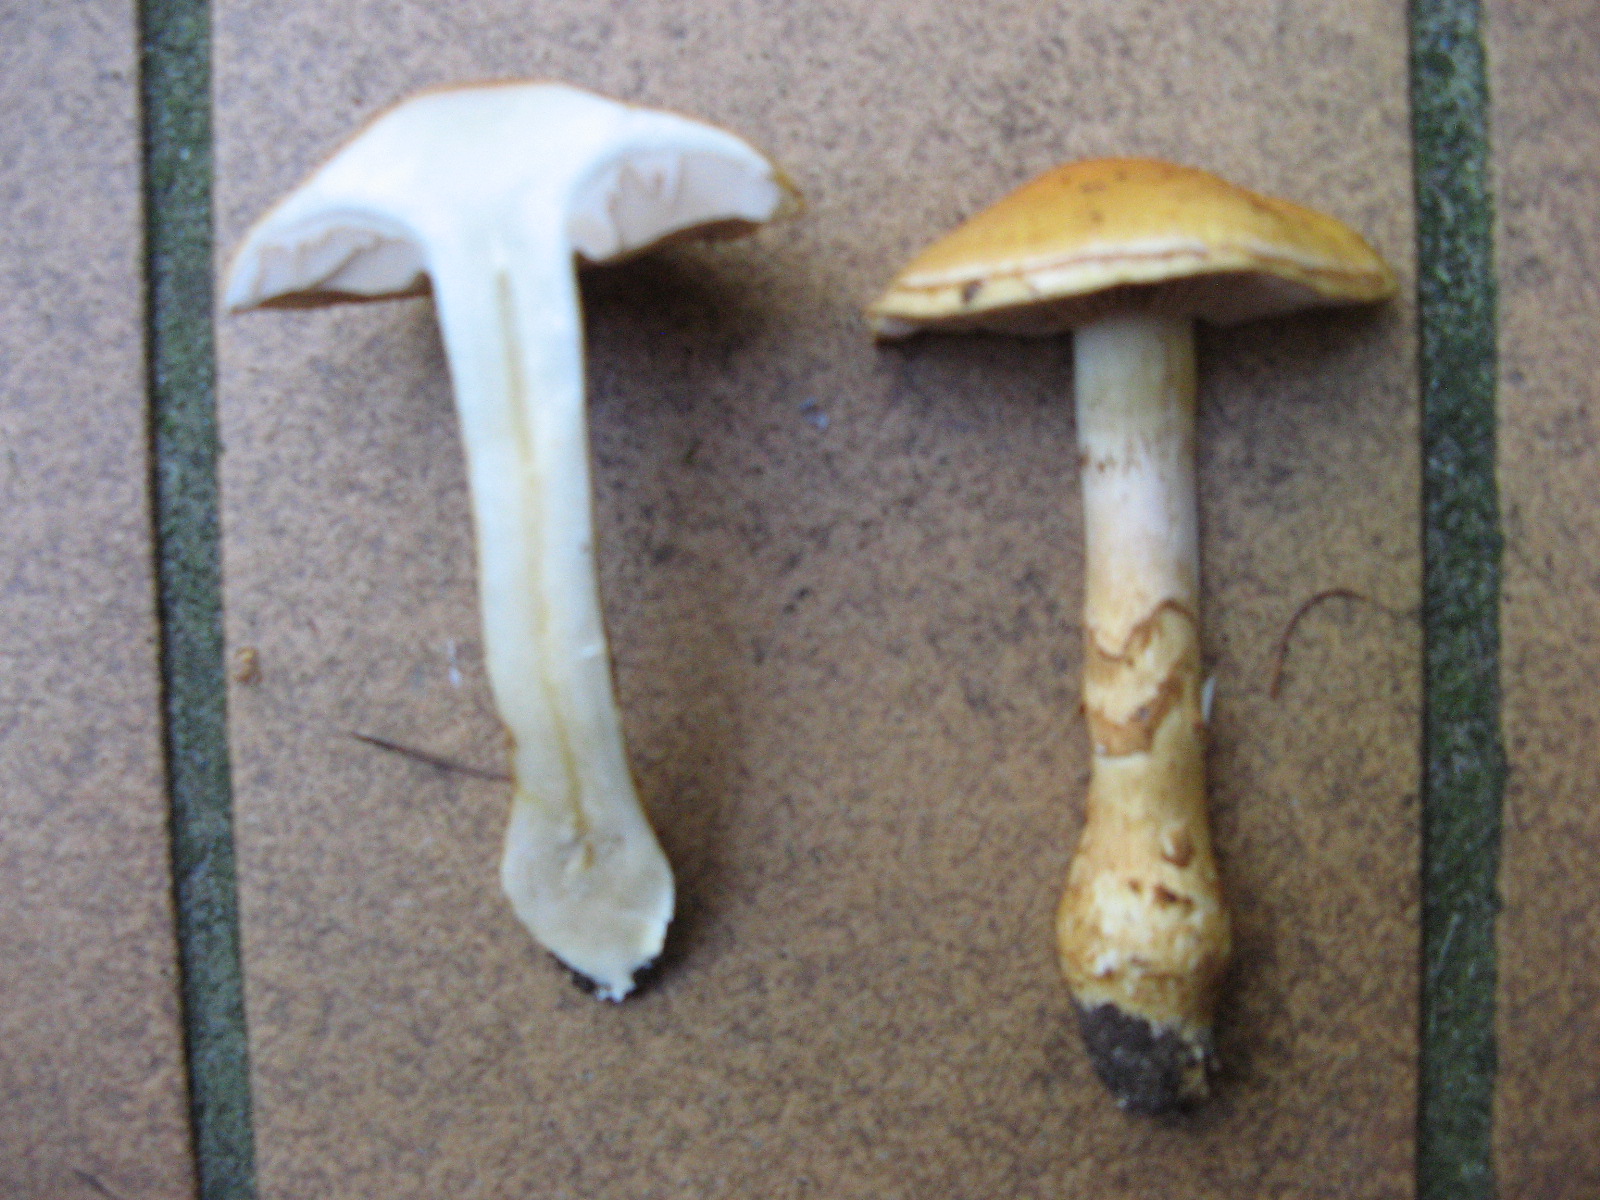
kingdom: Fungi
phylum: Basidiomycota
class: Agaricomycetes
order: Agaricales
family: Cortinariaceae
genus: Phlegmacium
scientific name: Phlegmacium triumphans
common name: gulbæltet slørhat
